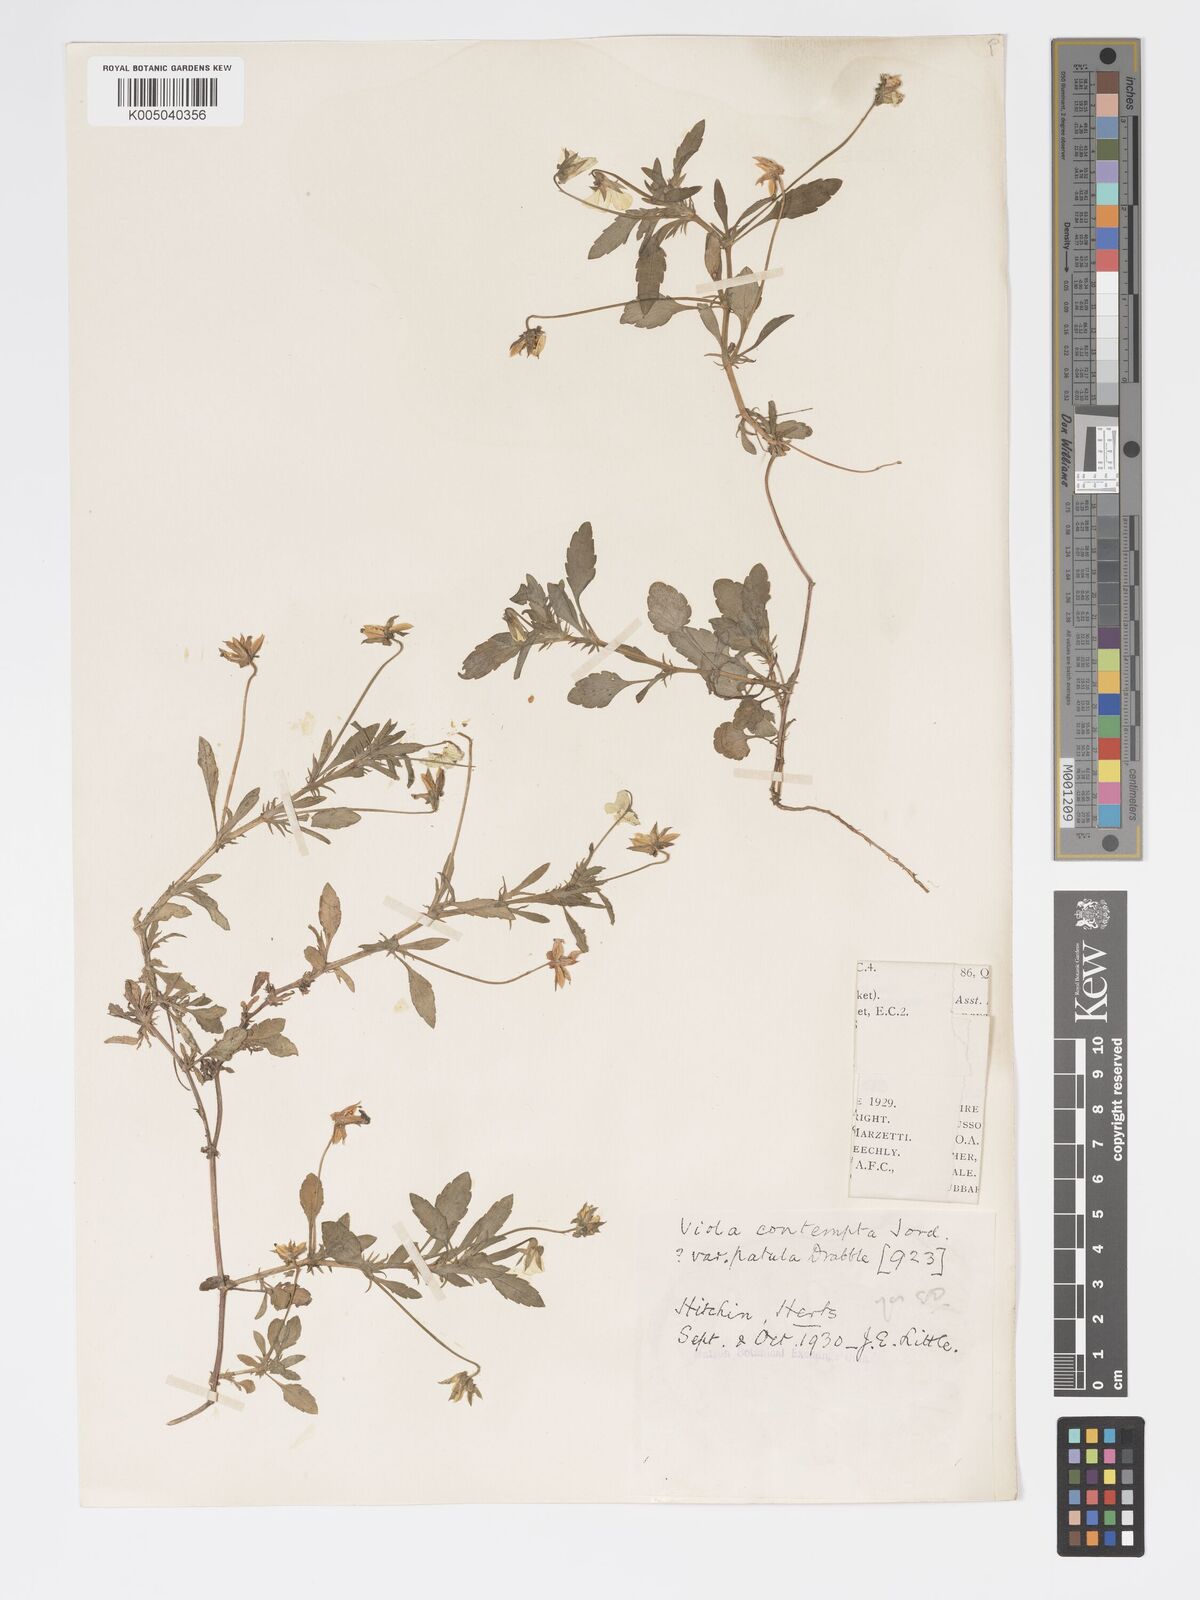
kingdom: Plantae
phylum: Tracheophyta
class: Magnoliopsida
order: Malpighiales
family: Violaceae
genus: Viola
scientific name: Viola arvensis
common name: Field pansy
